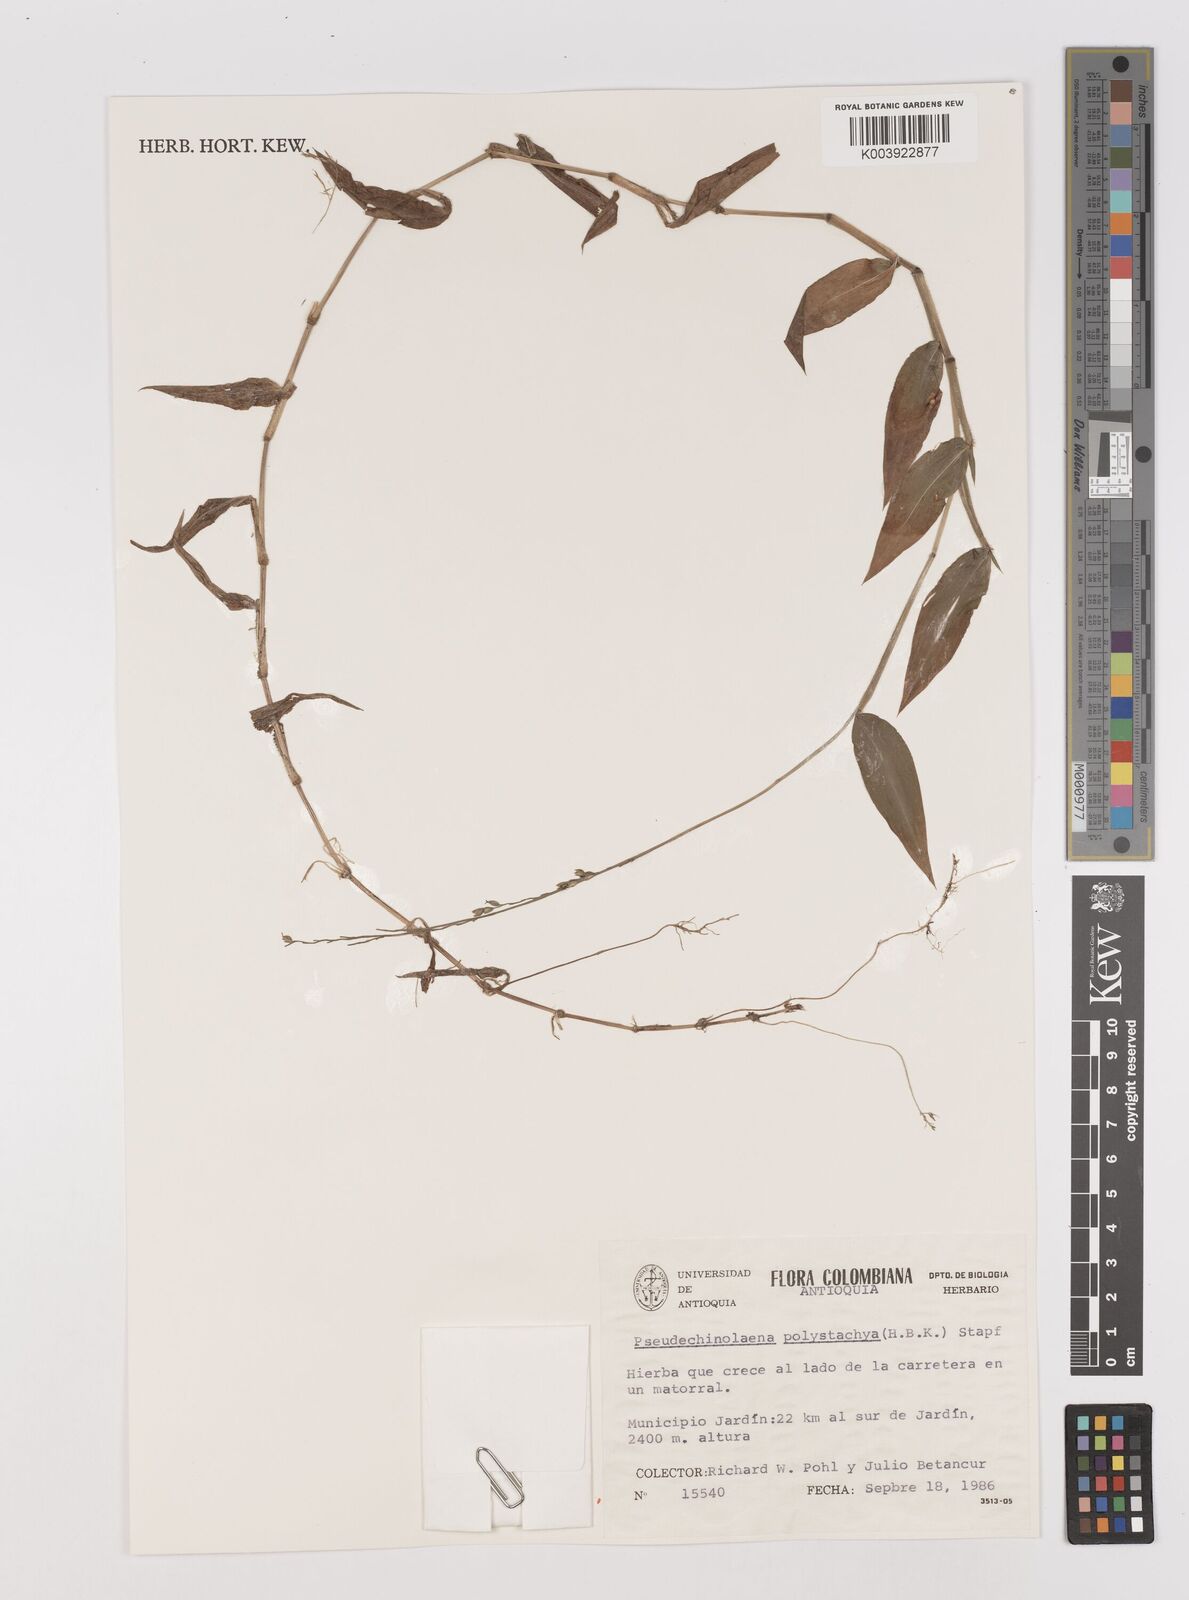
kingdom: Plantae
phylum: Tracheophyta
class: Liliopsida
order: Poales
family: Poaceae
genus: Pseudechinolaena
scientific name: Pseudechinolaena polystachya
